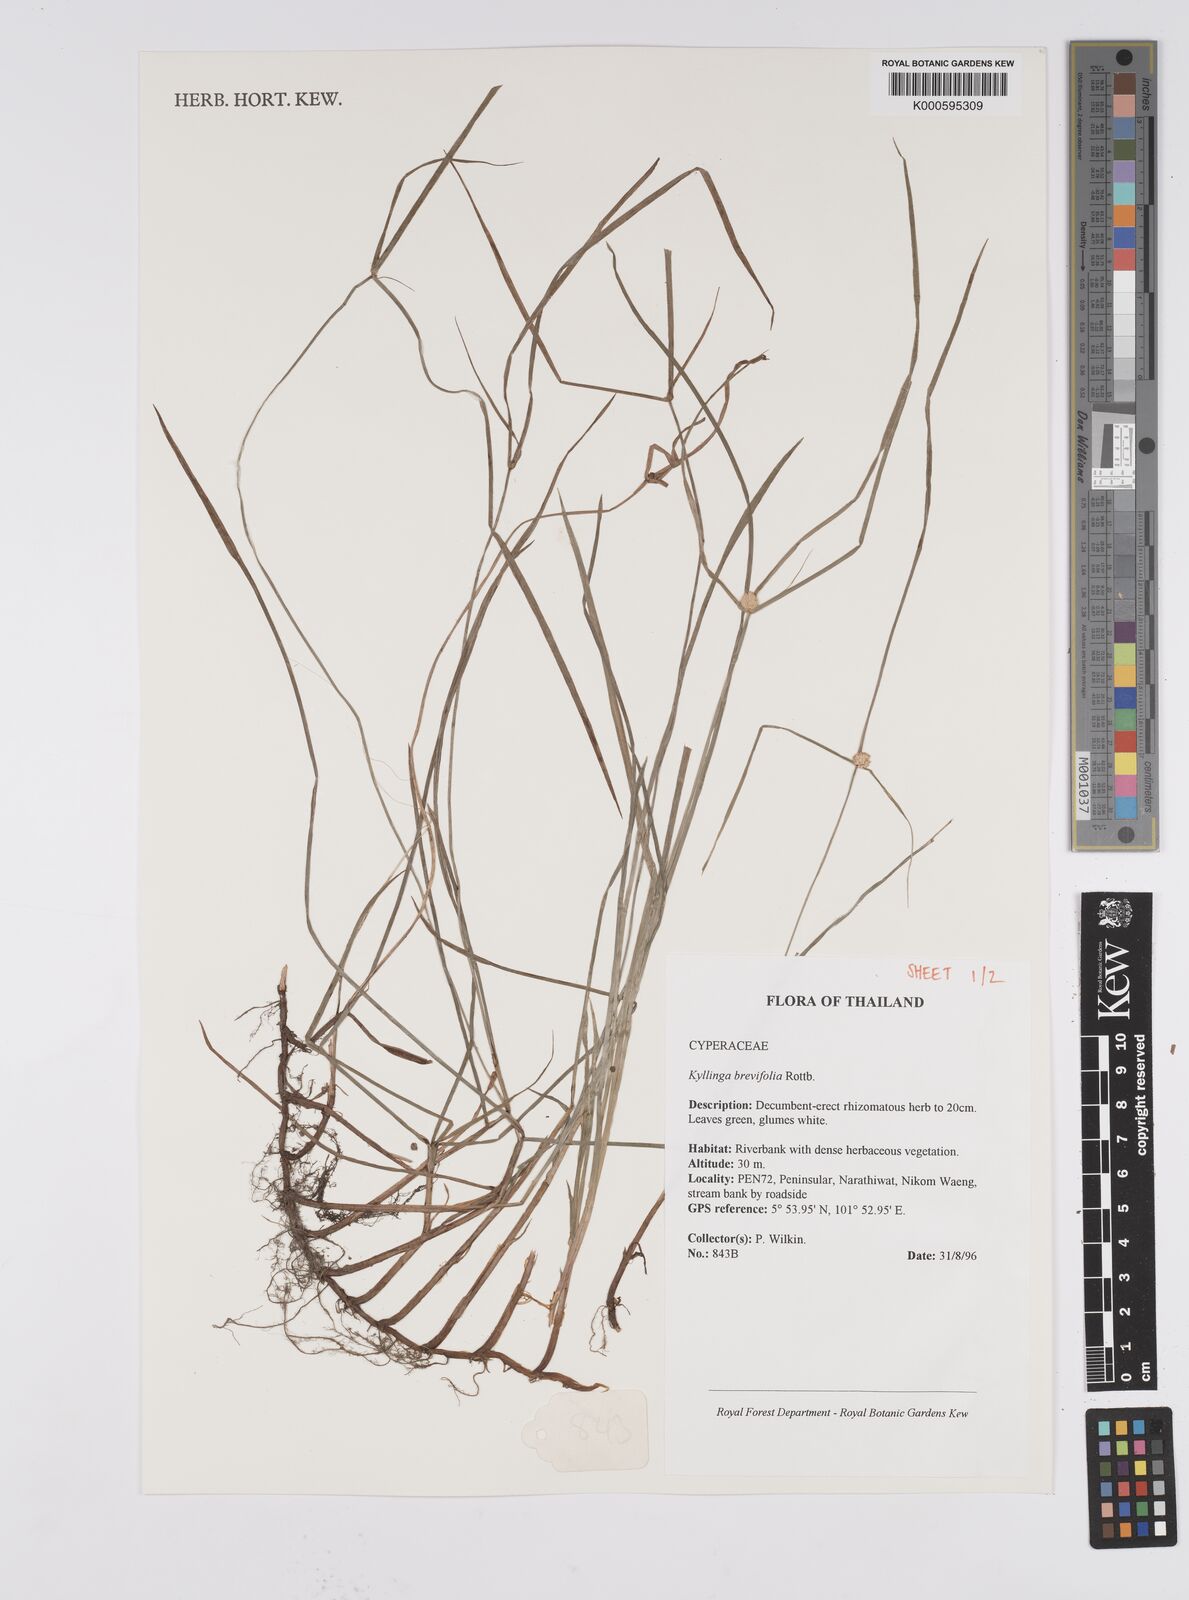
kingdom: Plantae
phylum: Tracheophyta
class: Liliopsida
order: Poales
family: Cyperaceae
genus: Cyperus
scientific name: Cyperus brevifolius
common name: Globe kyllinga
